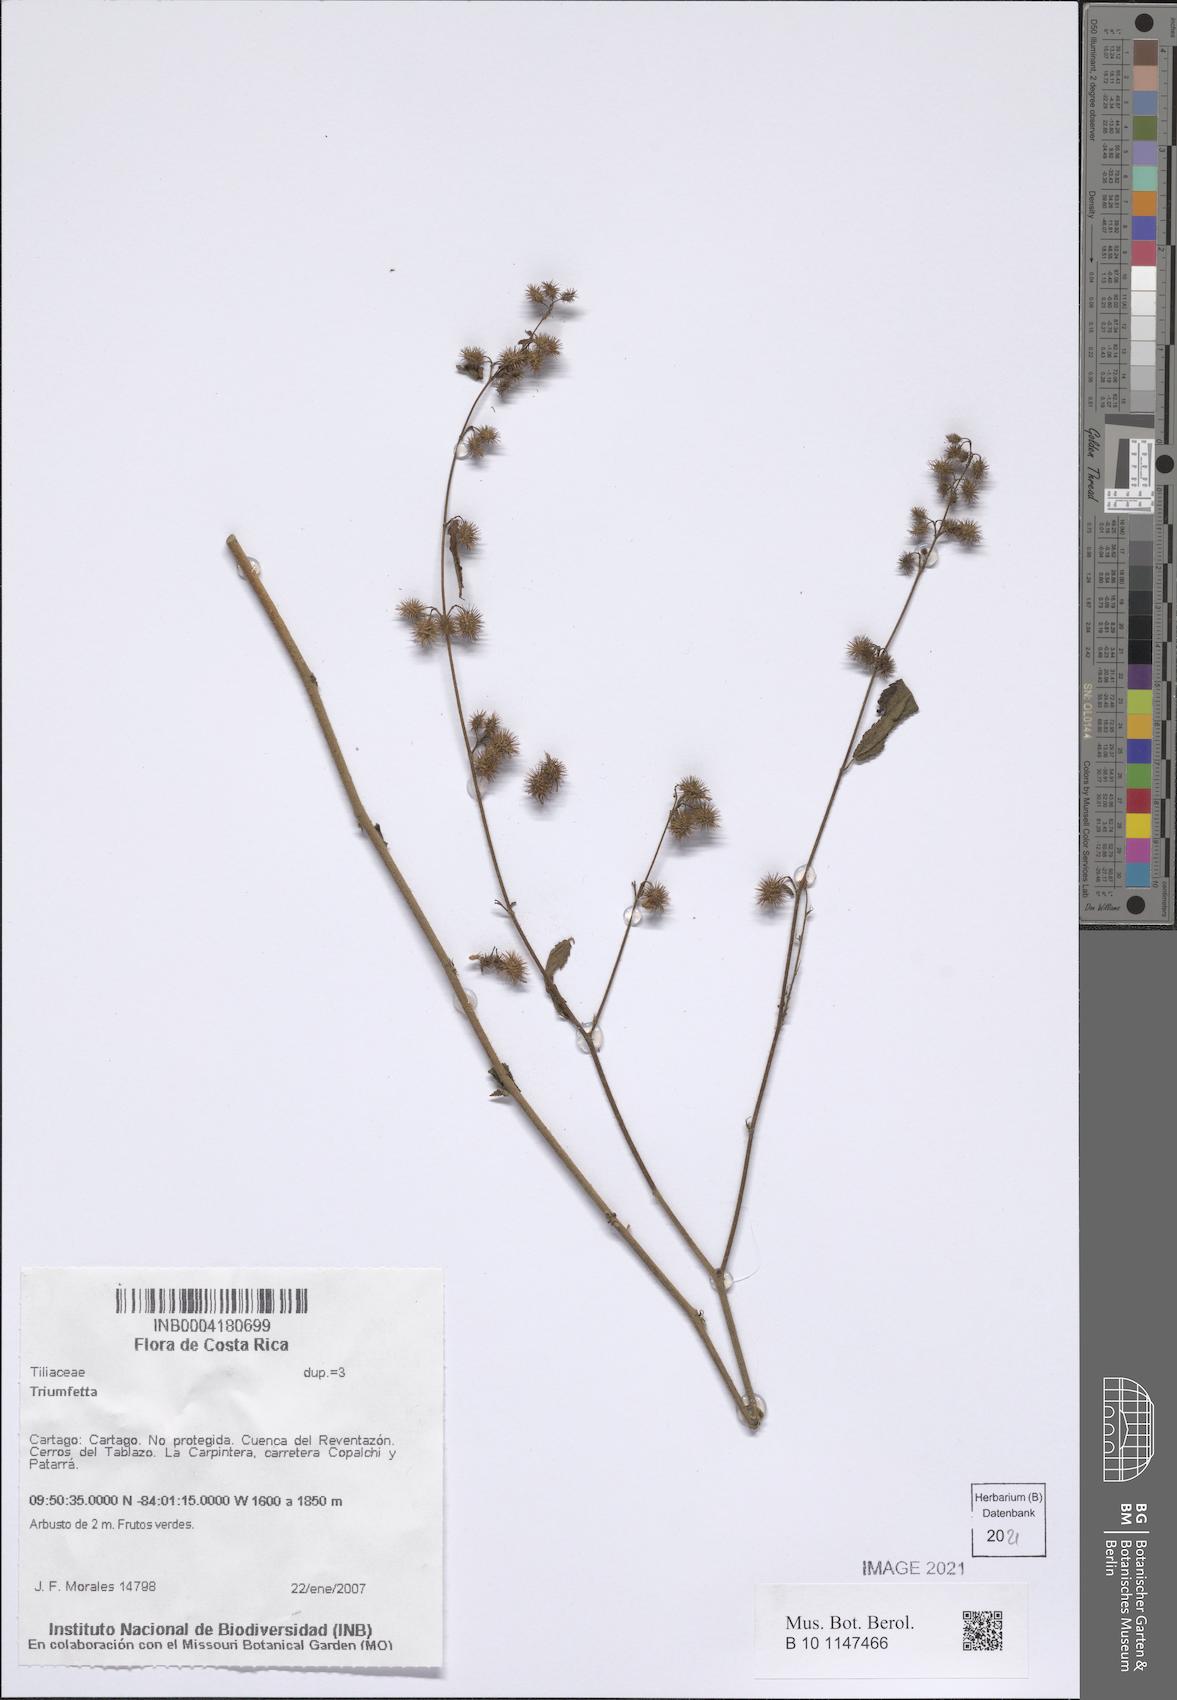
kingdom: Plantae
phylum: Tracheophyta
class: Magnoliopsida
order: Malvales
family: Malvaceae
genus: Triumfetta
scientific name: Triumfetta
